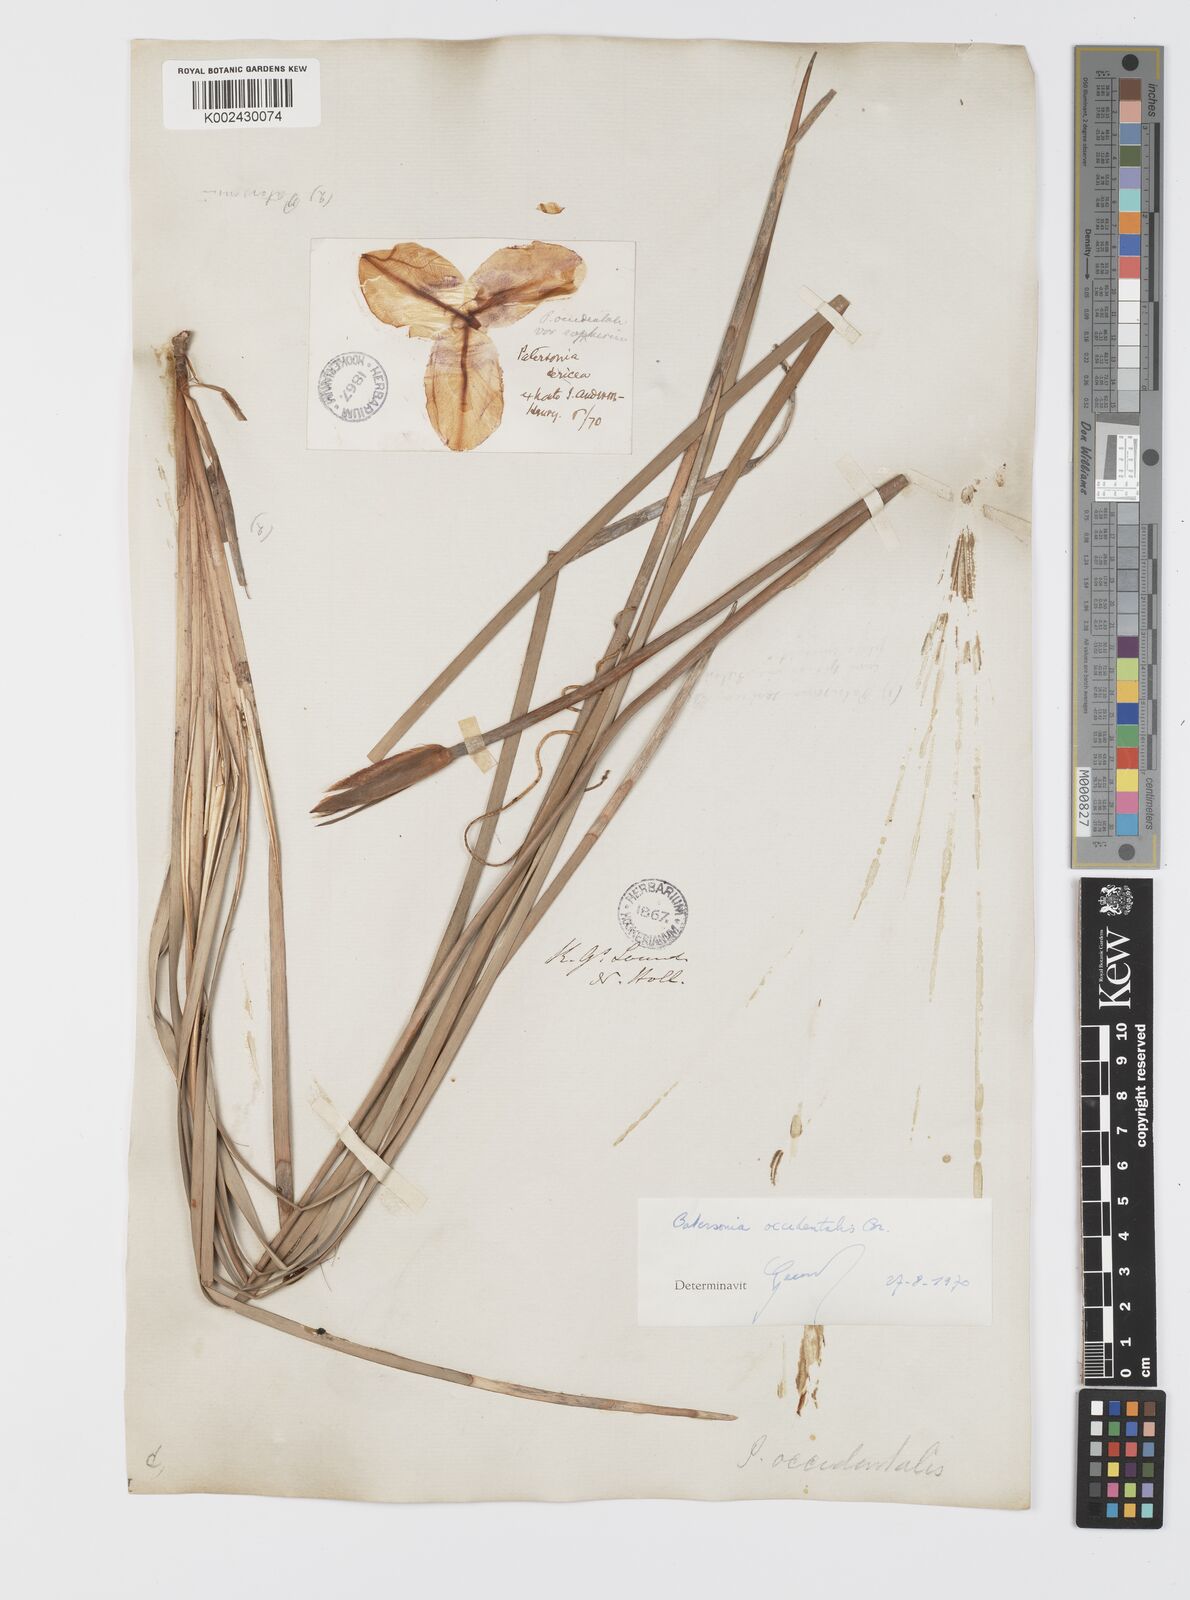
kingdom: Plantae
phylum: Tracheophyta
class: Liliopsida
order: Asparagales
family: Iridaceae
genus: Patersonia
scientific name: Patersonia occidentalis
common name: Long purple-flag
